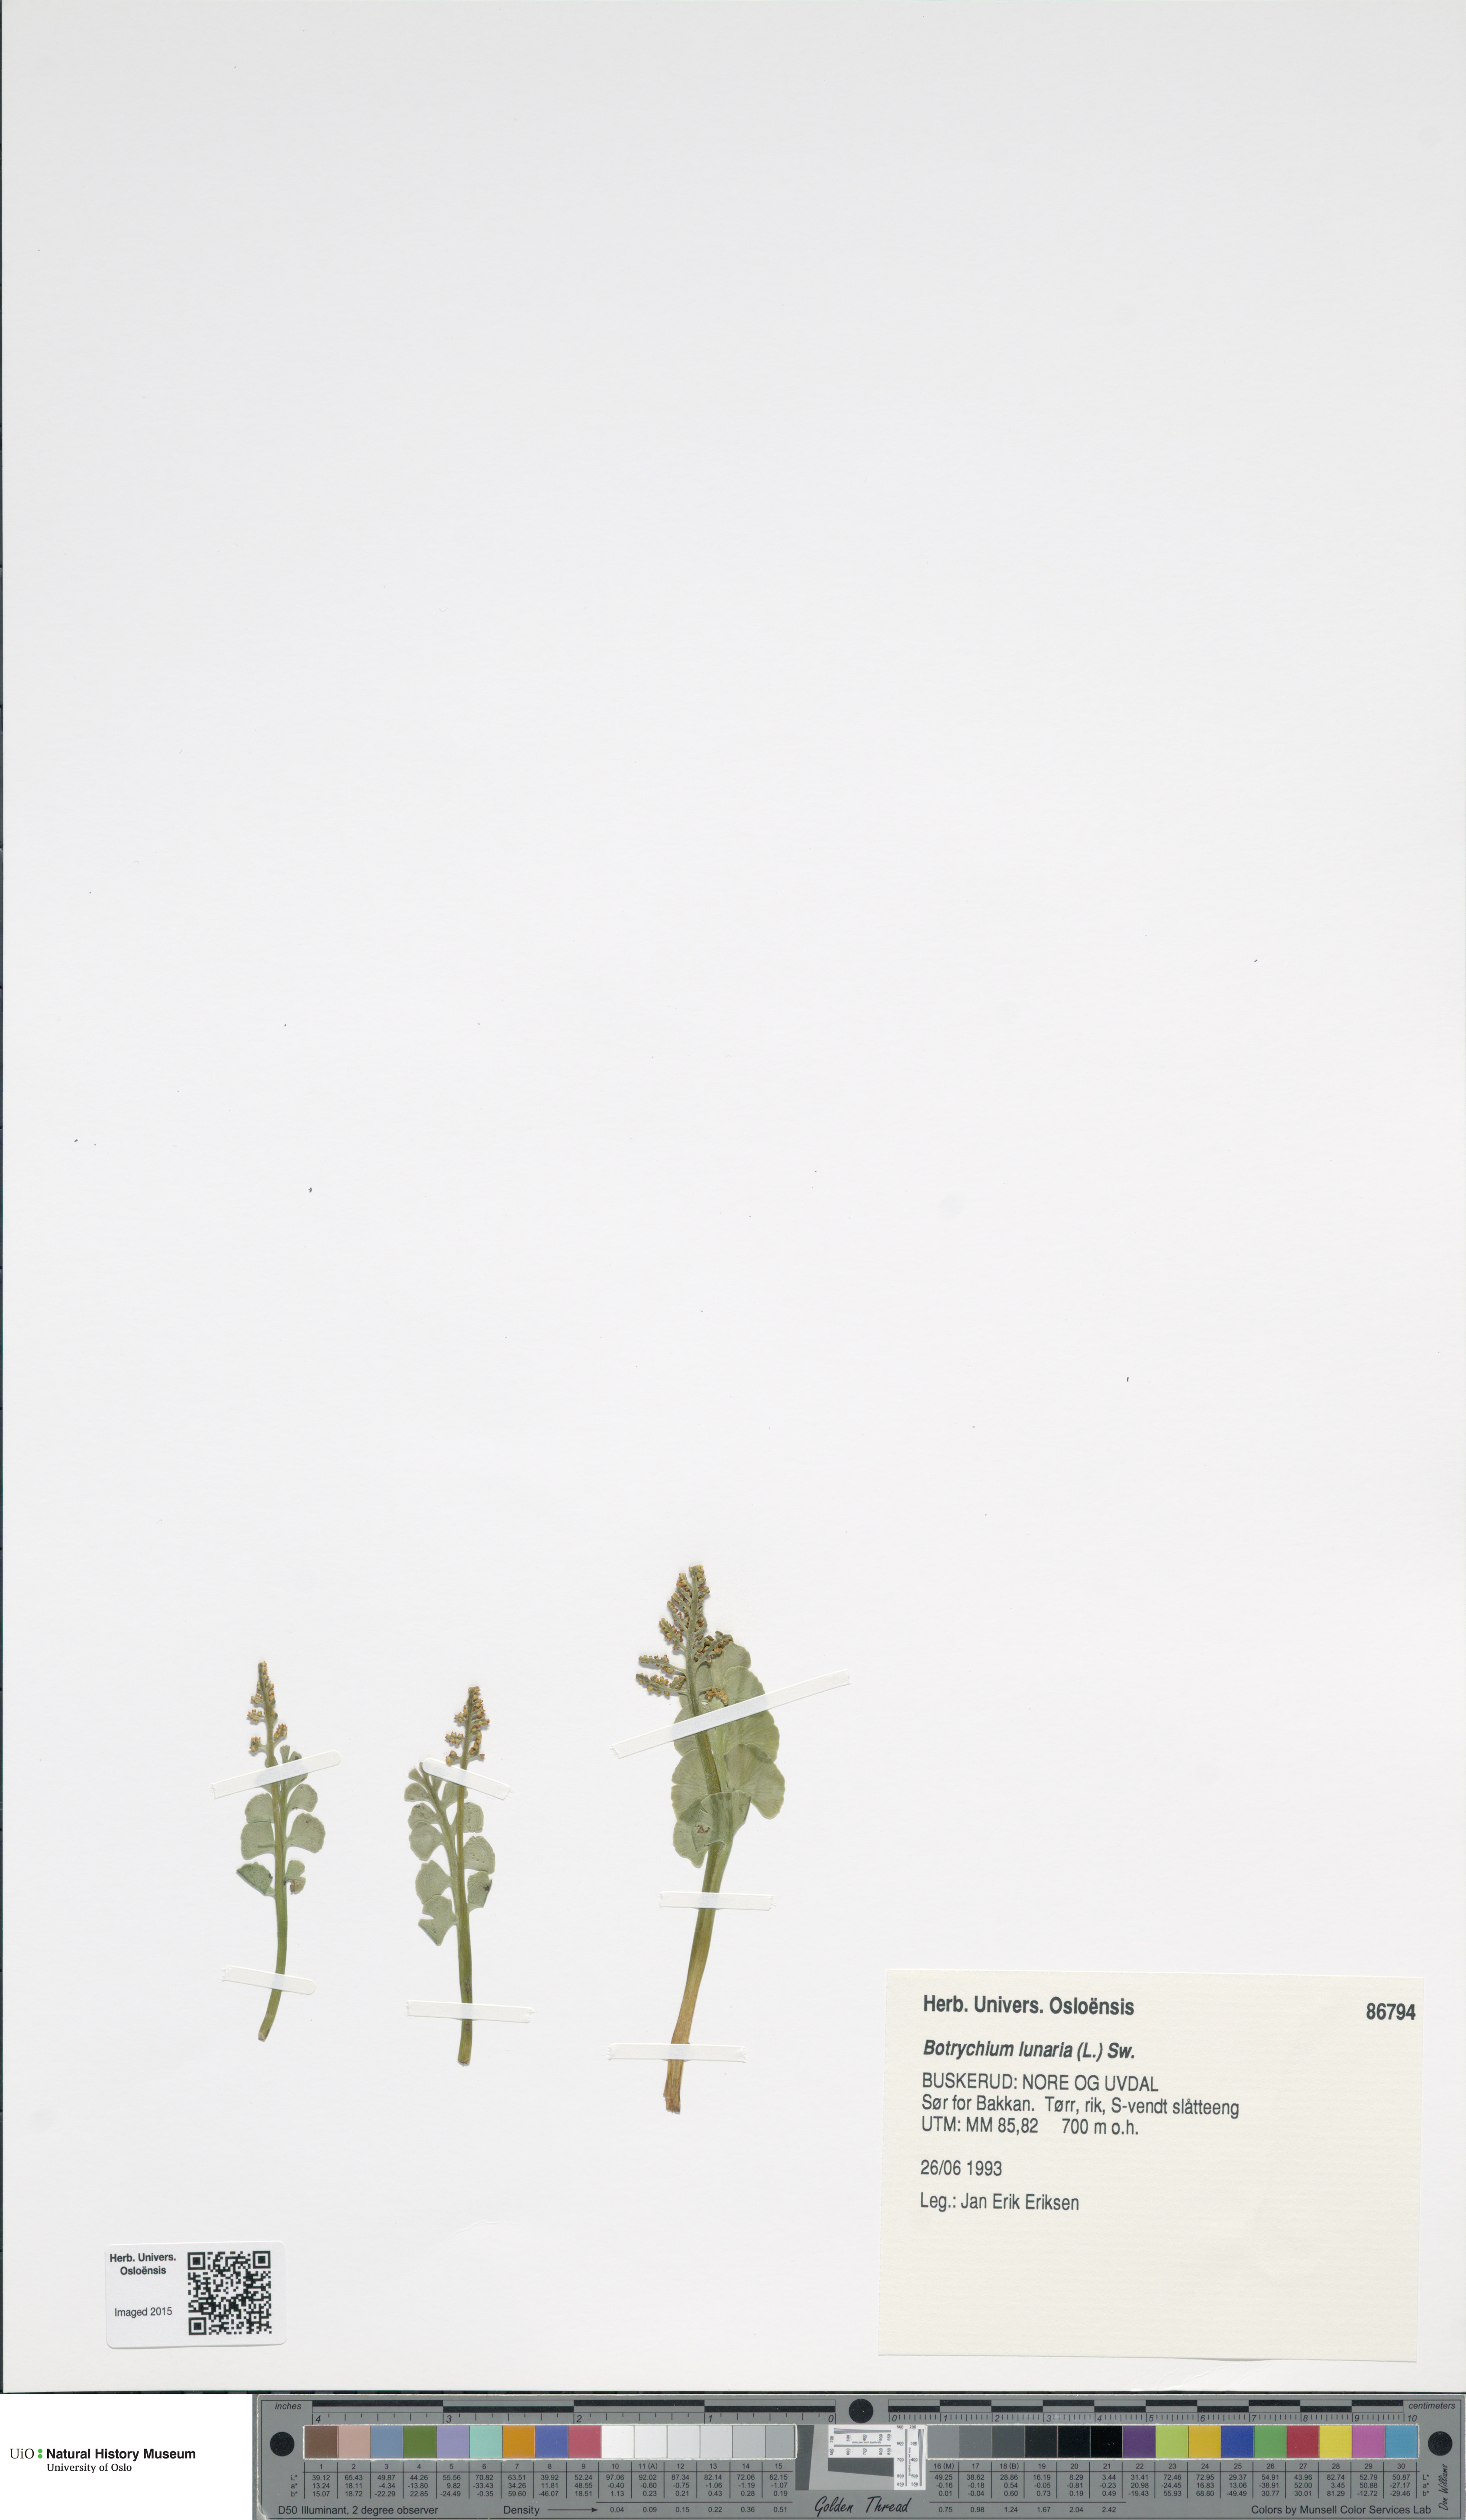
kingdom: Plantae
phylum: Tracheophyta
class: Polypodiopsida
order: Ophioglossales
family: Ophioglossaceae
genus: Botrychium
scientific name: Botrychium lunaria
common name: Moonwort
